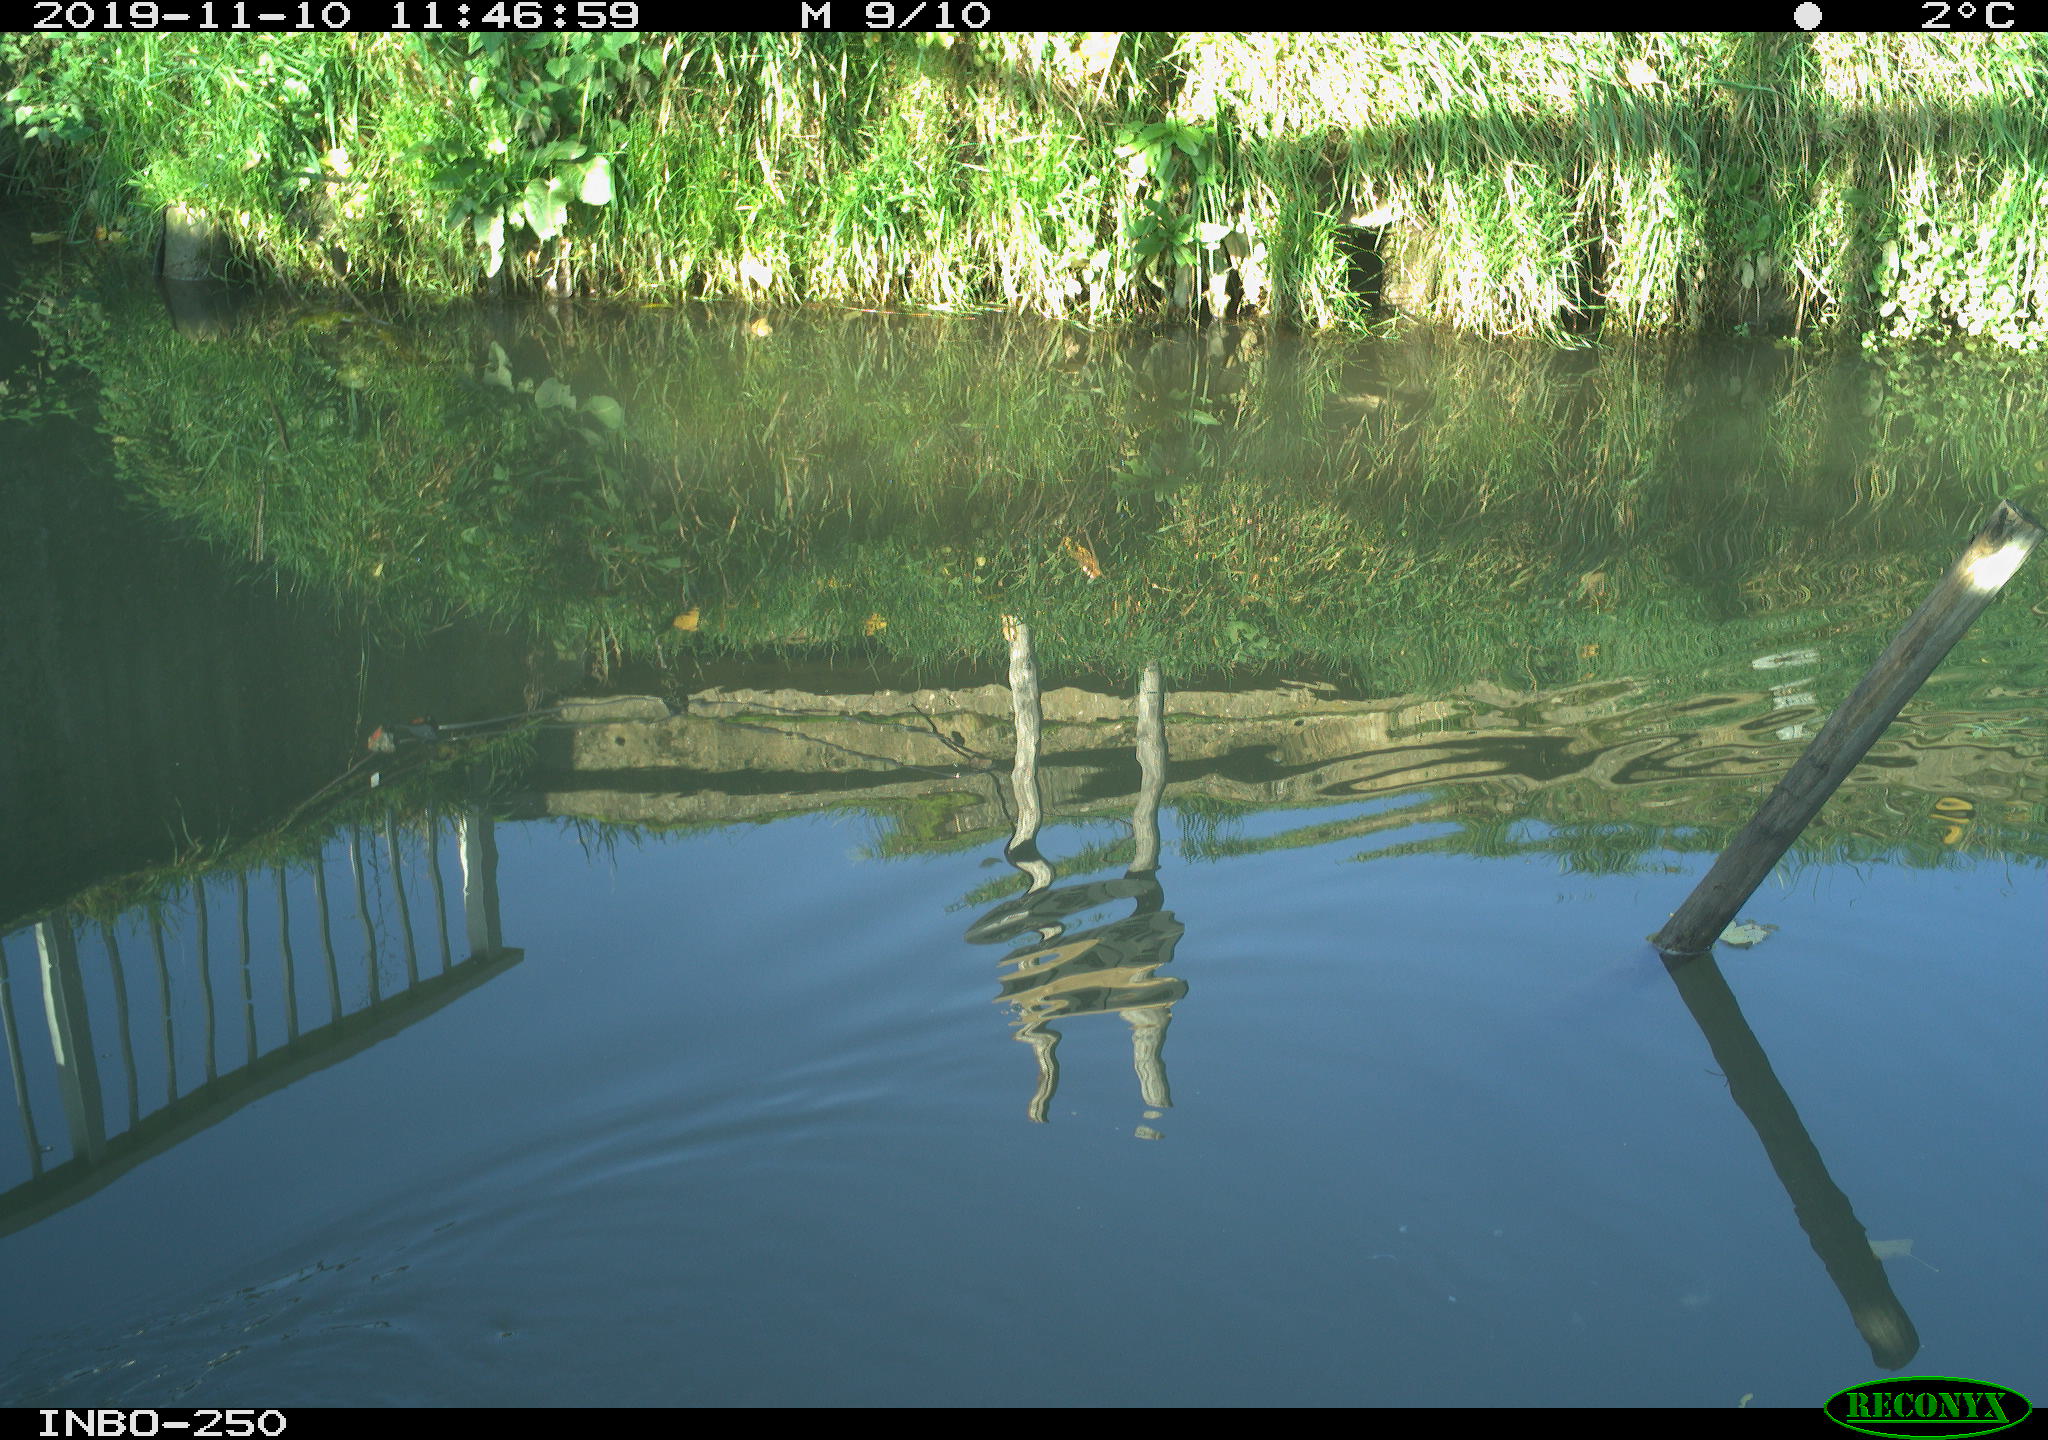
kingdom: Animalia
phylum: Chordata
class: Aves
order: Gruiformes
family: Rallidae
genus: Gallinula
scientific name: Gallinula chloropus
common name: Common moorhen
